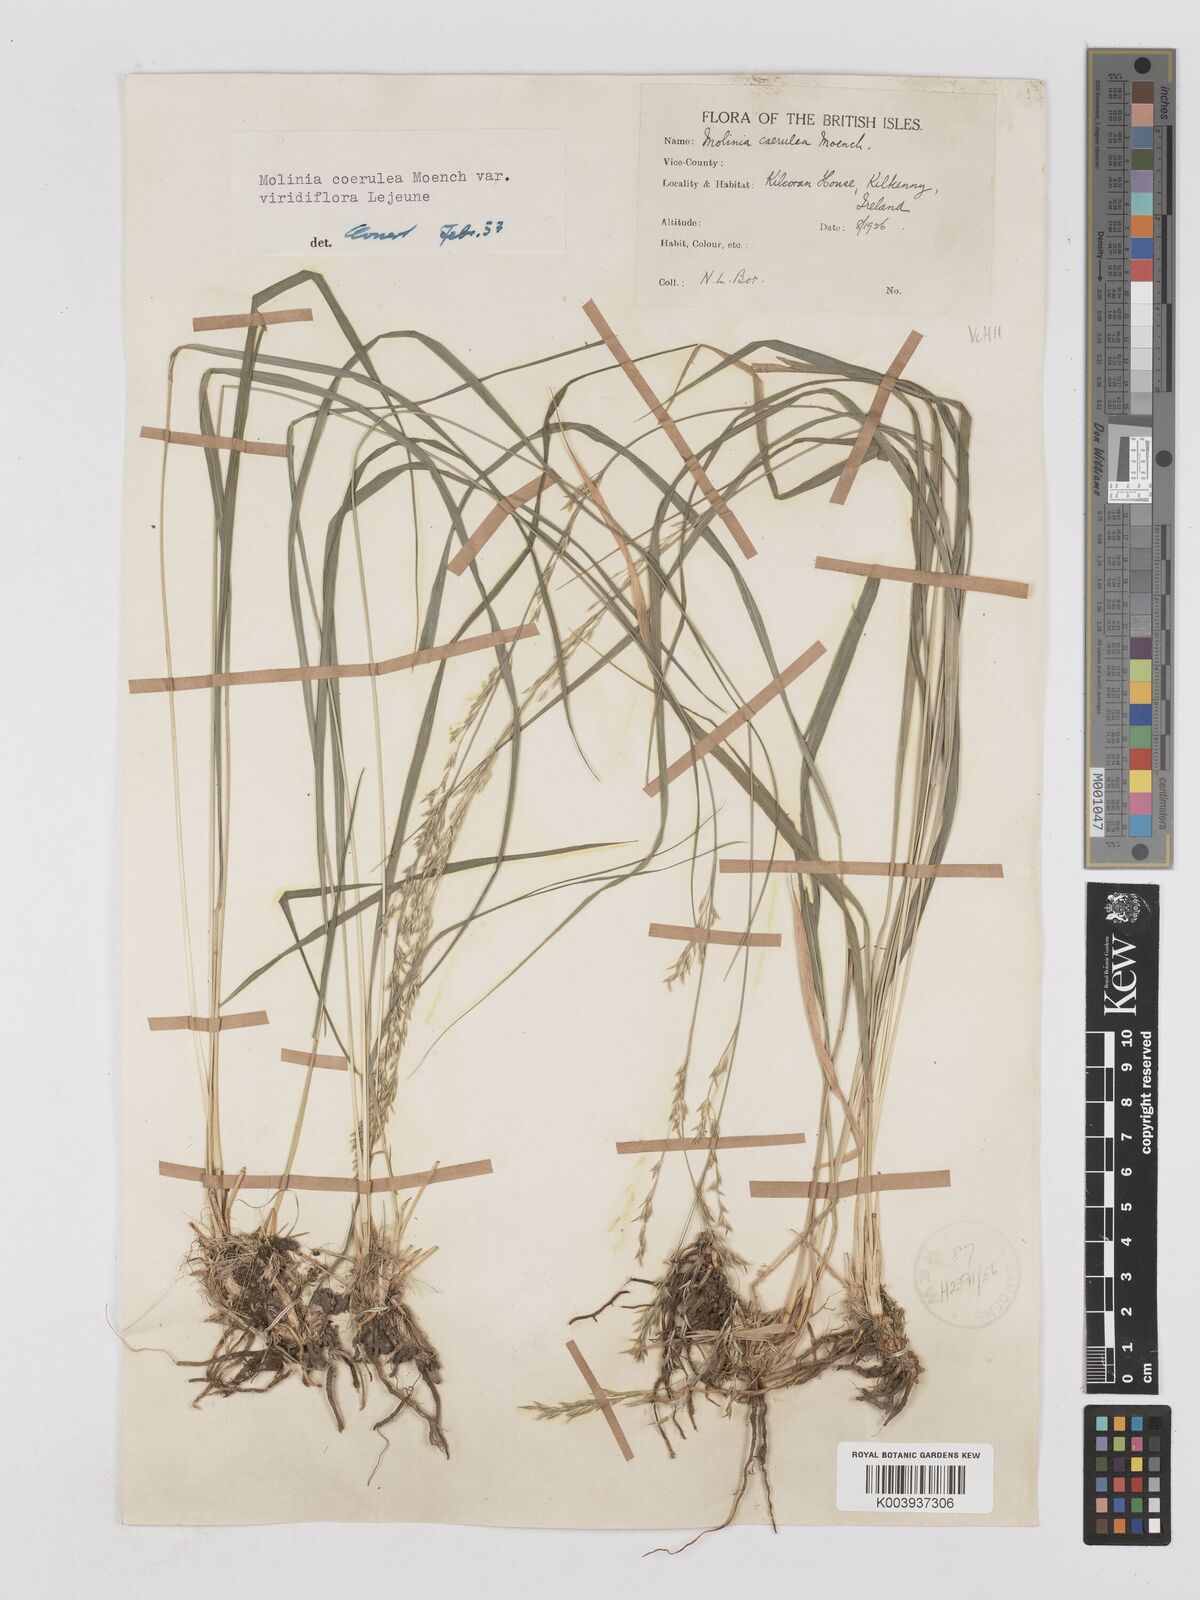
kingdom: Plantae
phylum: Tracheophyta
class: Liliopsida
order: Poales
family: Poaceae
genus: Molinia
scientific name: Molinia caerulea
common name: Purple moor-grass
